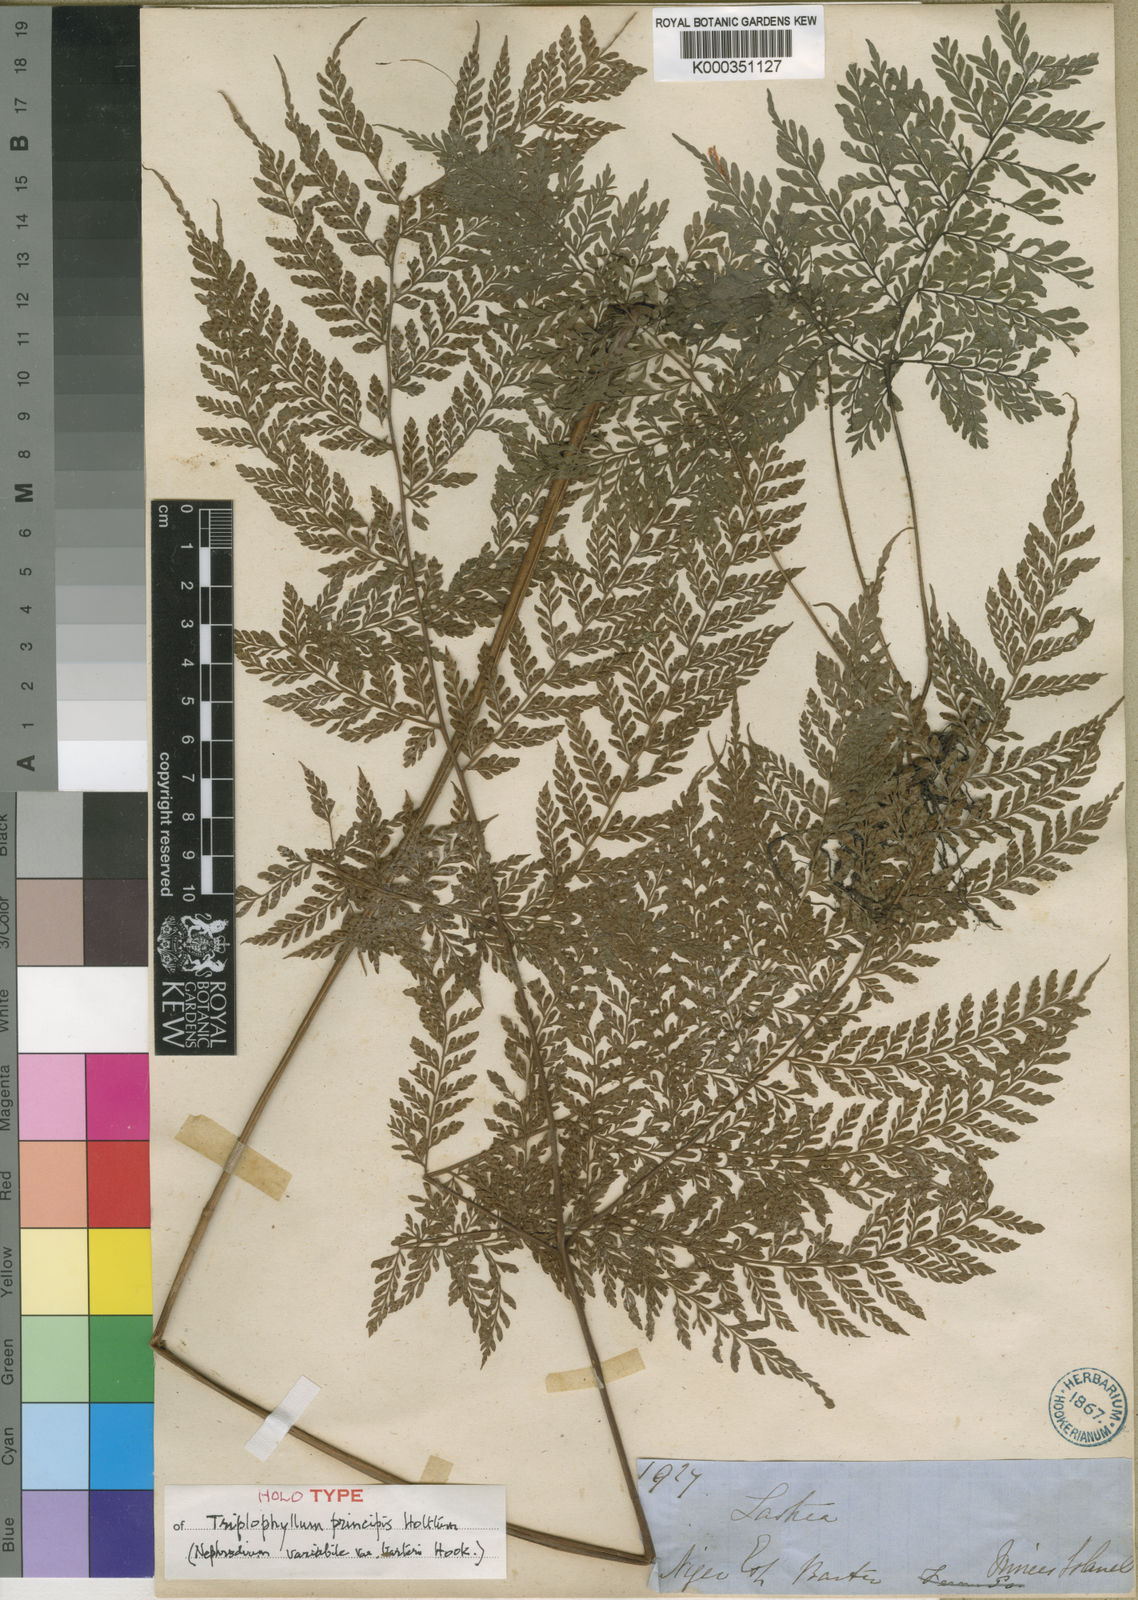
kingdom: Plantae
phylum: Tracheophyta
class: Polypodiopsida
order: Polypodiales
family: Tectariaceae
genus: Triplophyllum
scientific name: Triplophyllum principis
